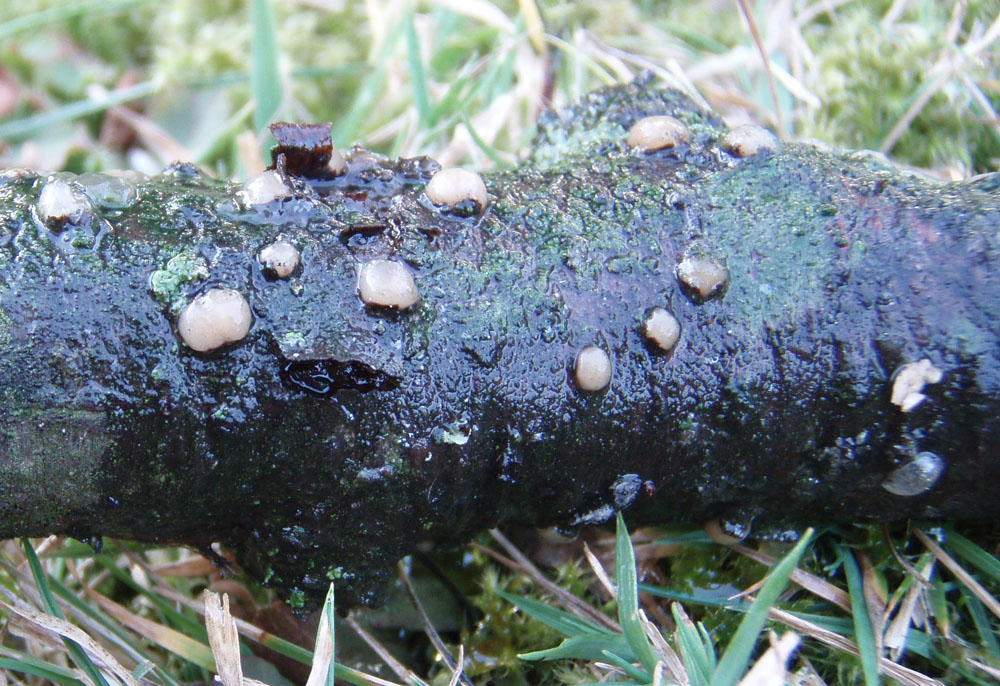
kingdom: Fungi
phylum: Basidiomycota
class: Pucciniomycetes
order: Platygloeales
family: Platygloeaceae
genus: Platygloea
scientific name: Platygloea disciformis
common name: linde-slimklat
